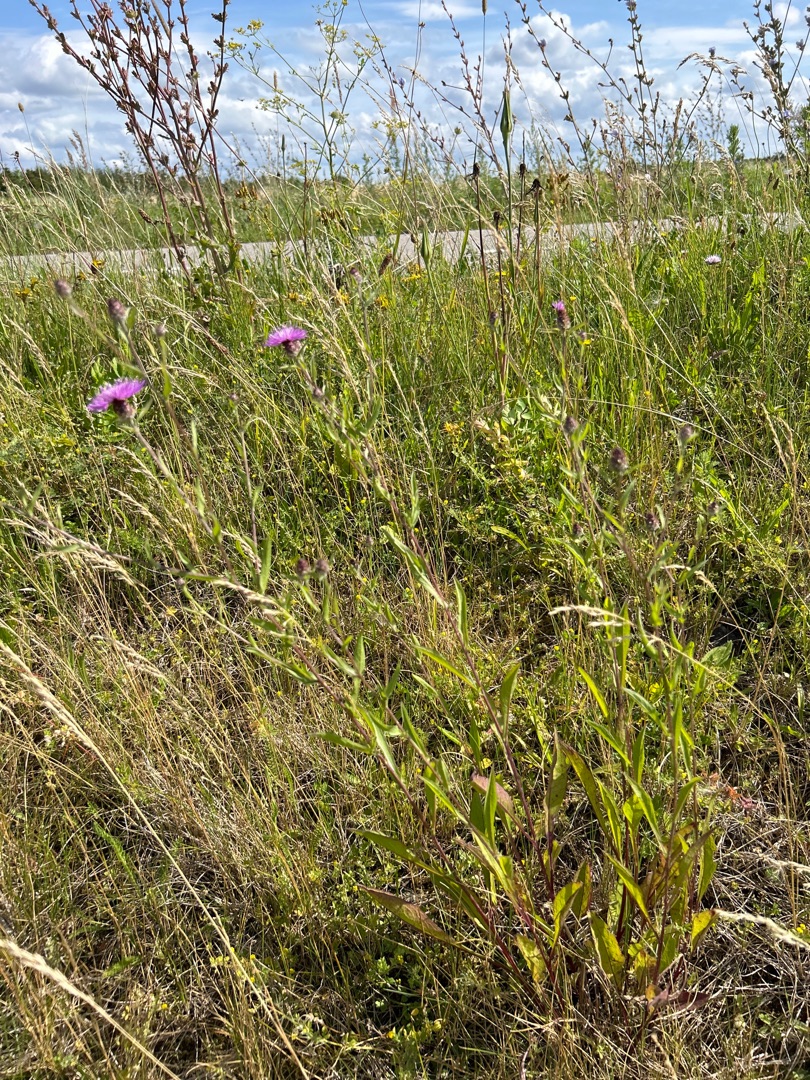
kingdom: Plantae
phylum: Tracheophyta
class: Magnoliopsida
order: Asterales
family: Asteraceae
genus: Centaurea
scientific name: Centaurea jacea
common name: Almindelig knopurt
